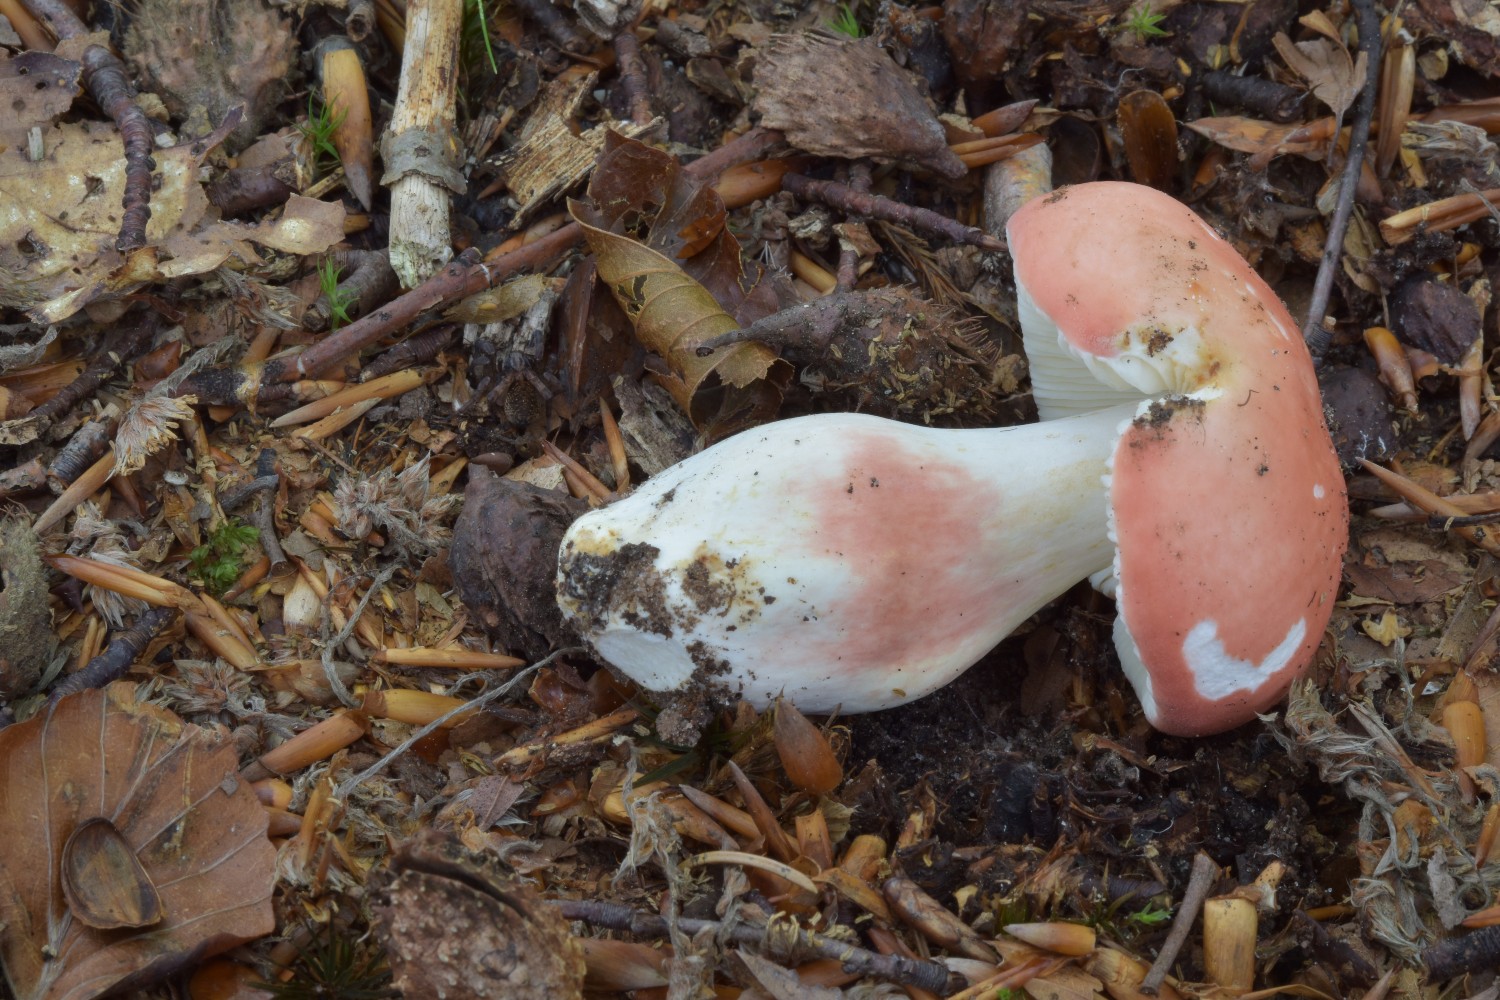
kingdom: Fungi
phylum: Basidiomycota
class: Agaricomycetes
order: Russulales
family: Russulaceae
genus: Russula
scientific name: Russula rosea
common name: fastkødet skørhat
